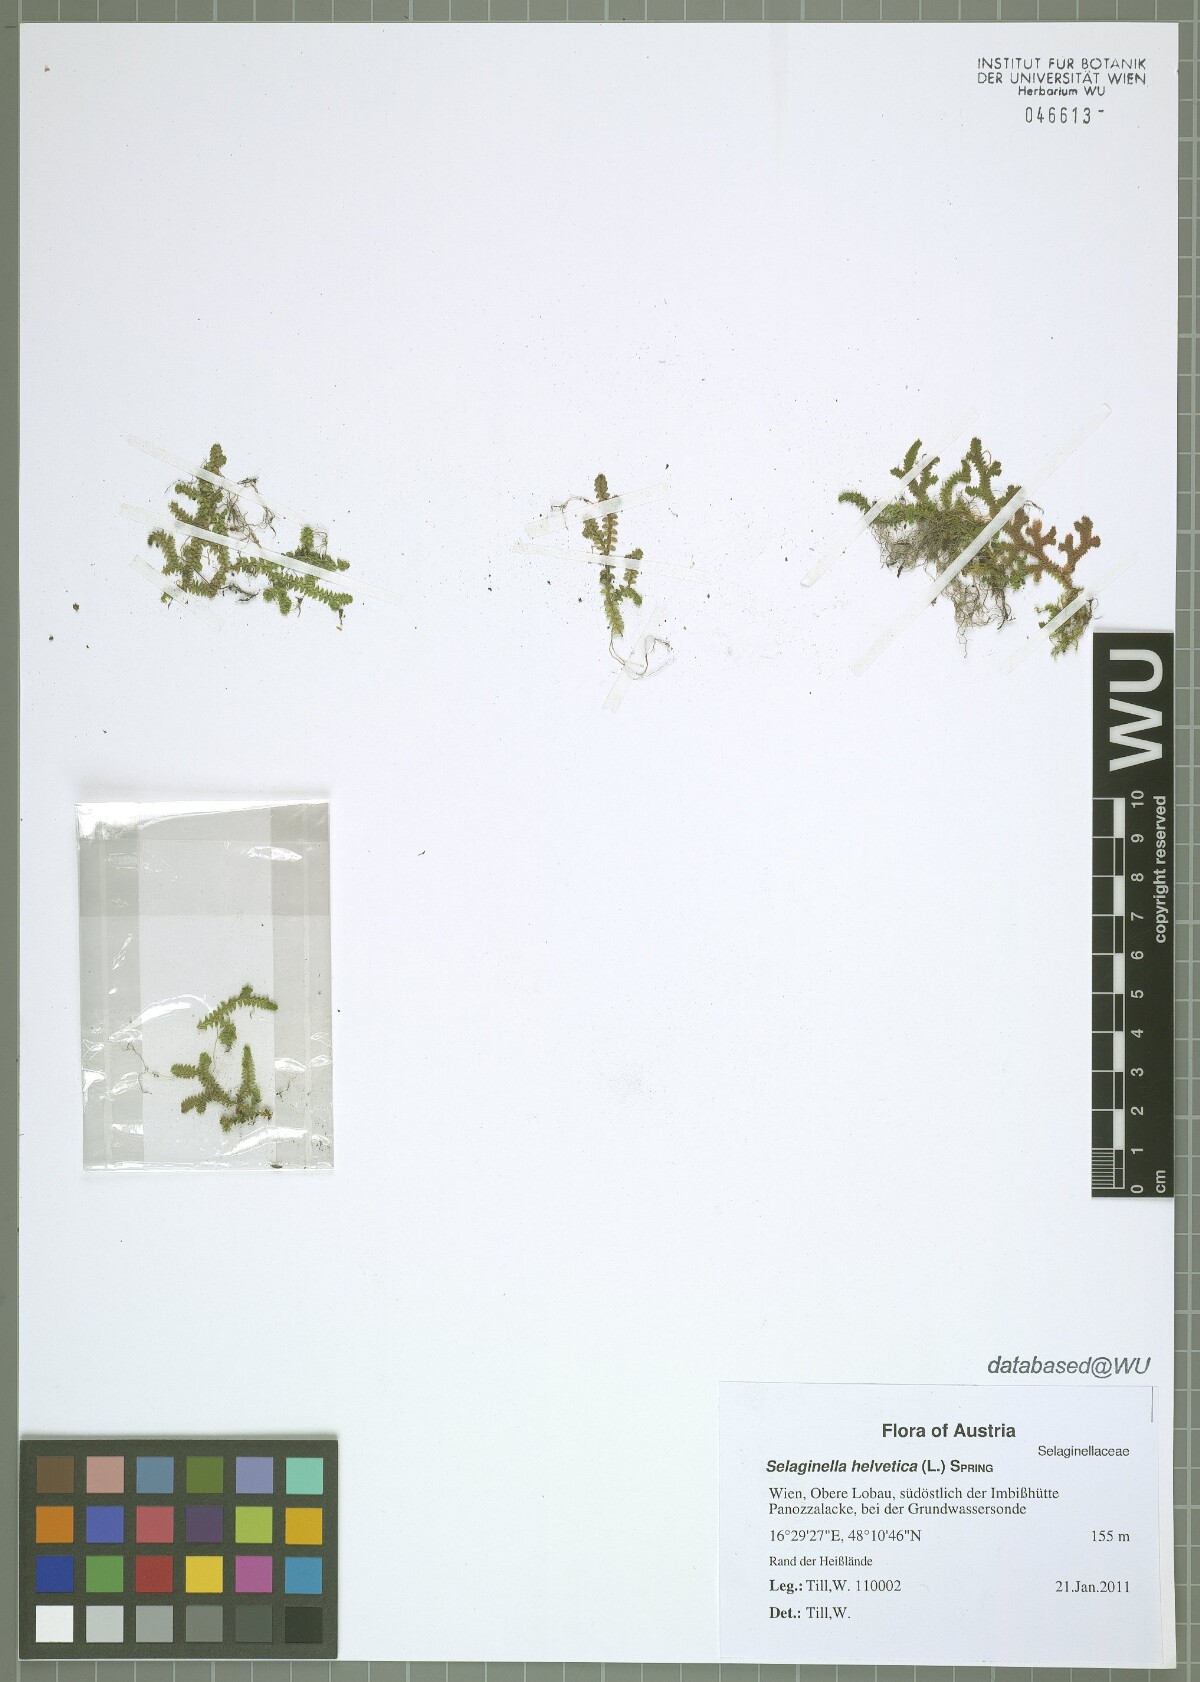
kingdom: Plantae
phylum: Tracheophyta
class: Lycopodiopsida
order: Selaginellales
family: Selaginellaceae
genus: Selaginella
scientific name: Selaginella helvetica
